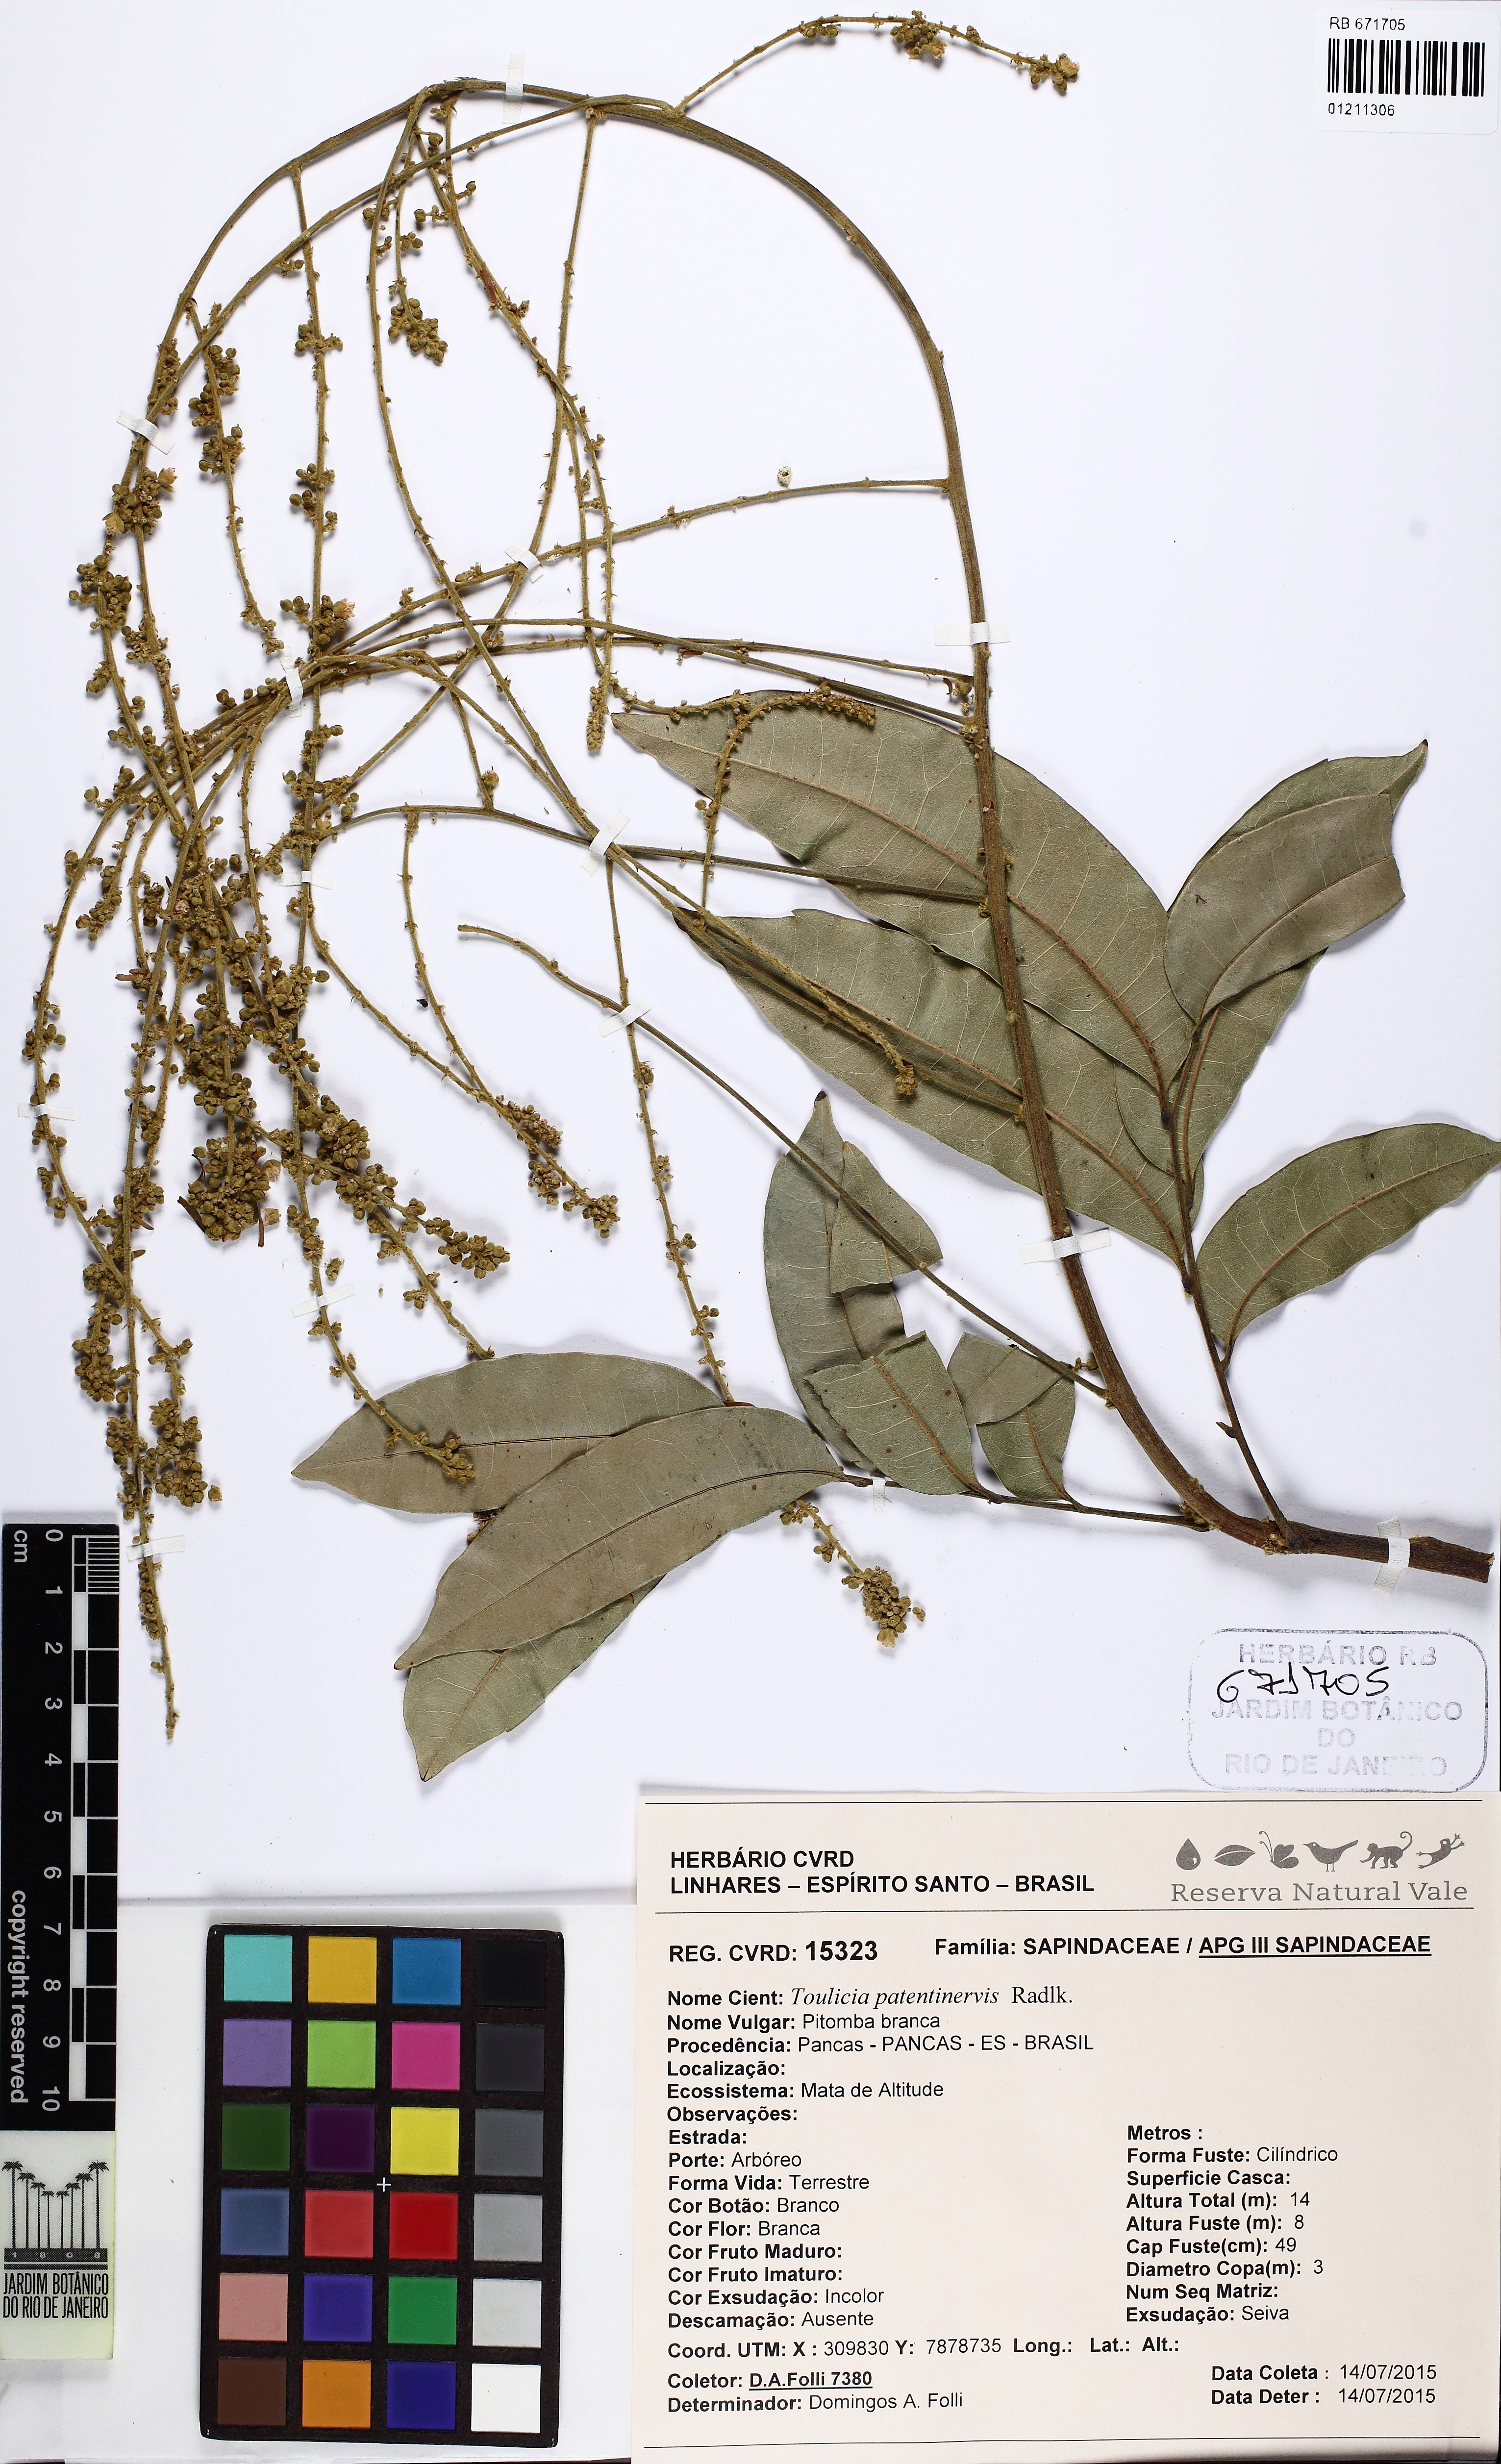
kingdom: Plantae
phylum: Tracheophyta
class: Magnoliopsida
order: Sapindales
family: Sapindaceae
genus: Toulicia
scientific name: Toulicia patentinervis
